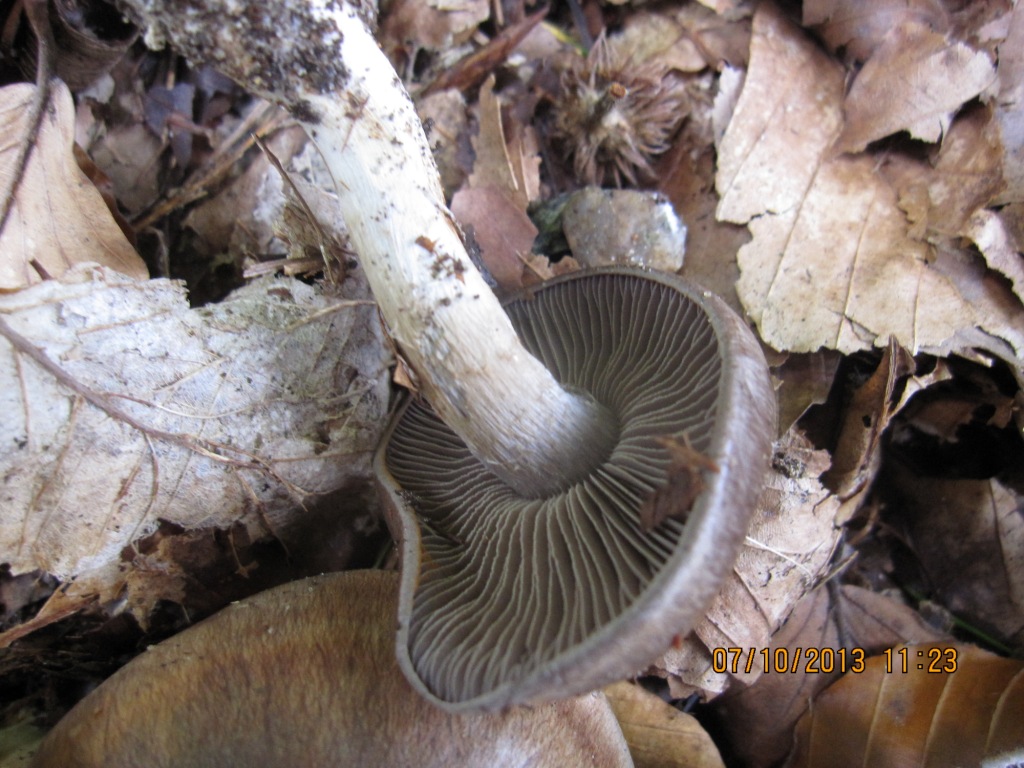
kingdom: Fungi
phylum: Basidiomycota
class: Agaricomycetes
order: Agaricales
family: Cortinariaceae
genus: Cortinarius
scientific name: Cortinarius
